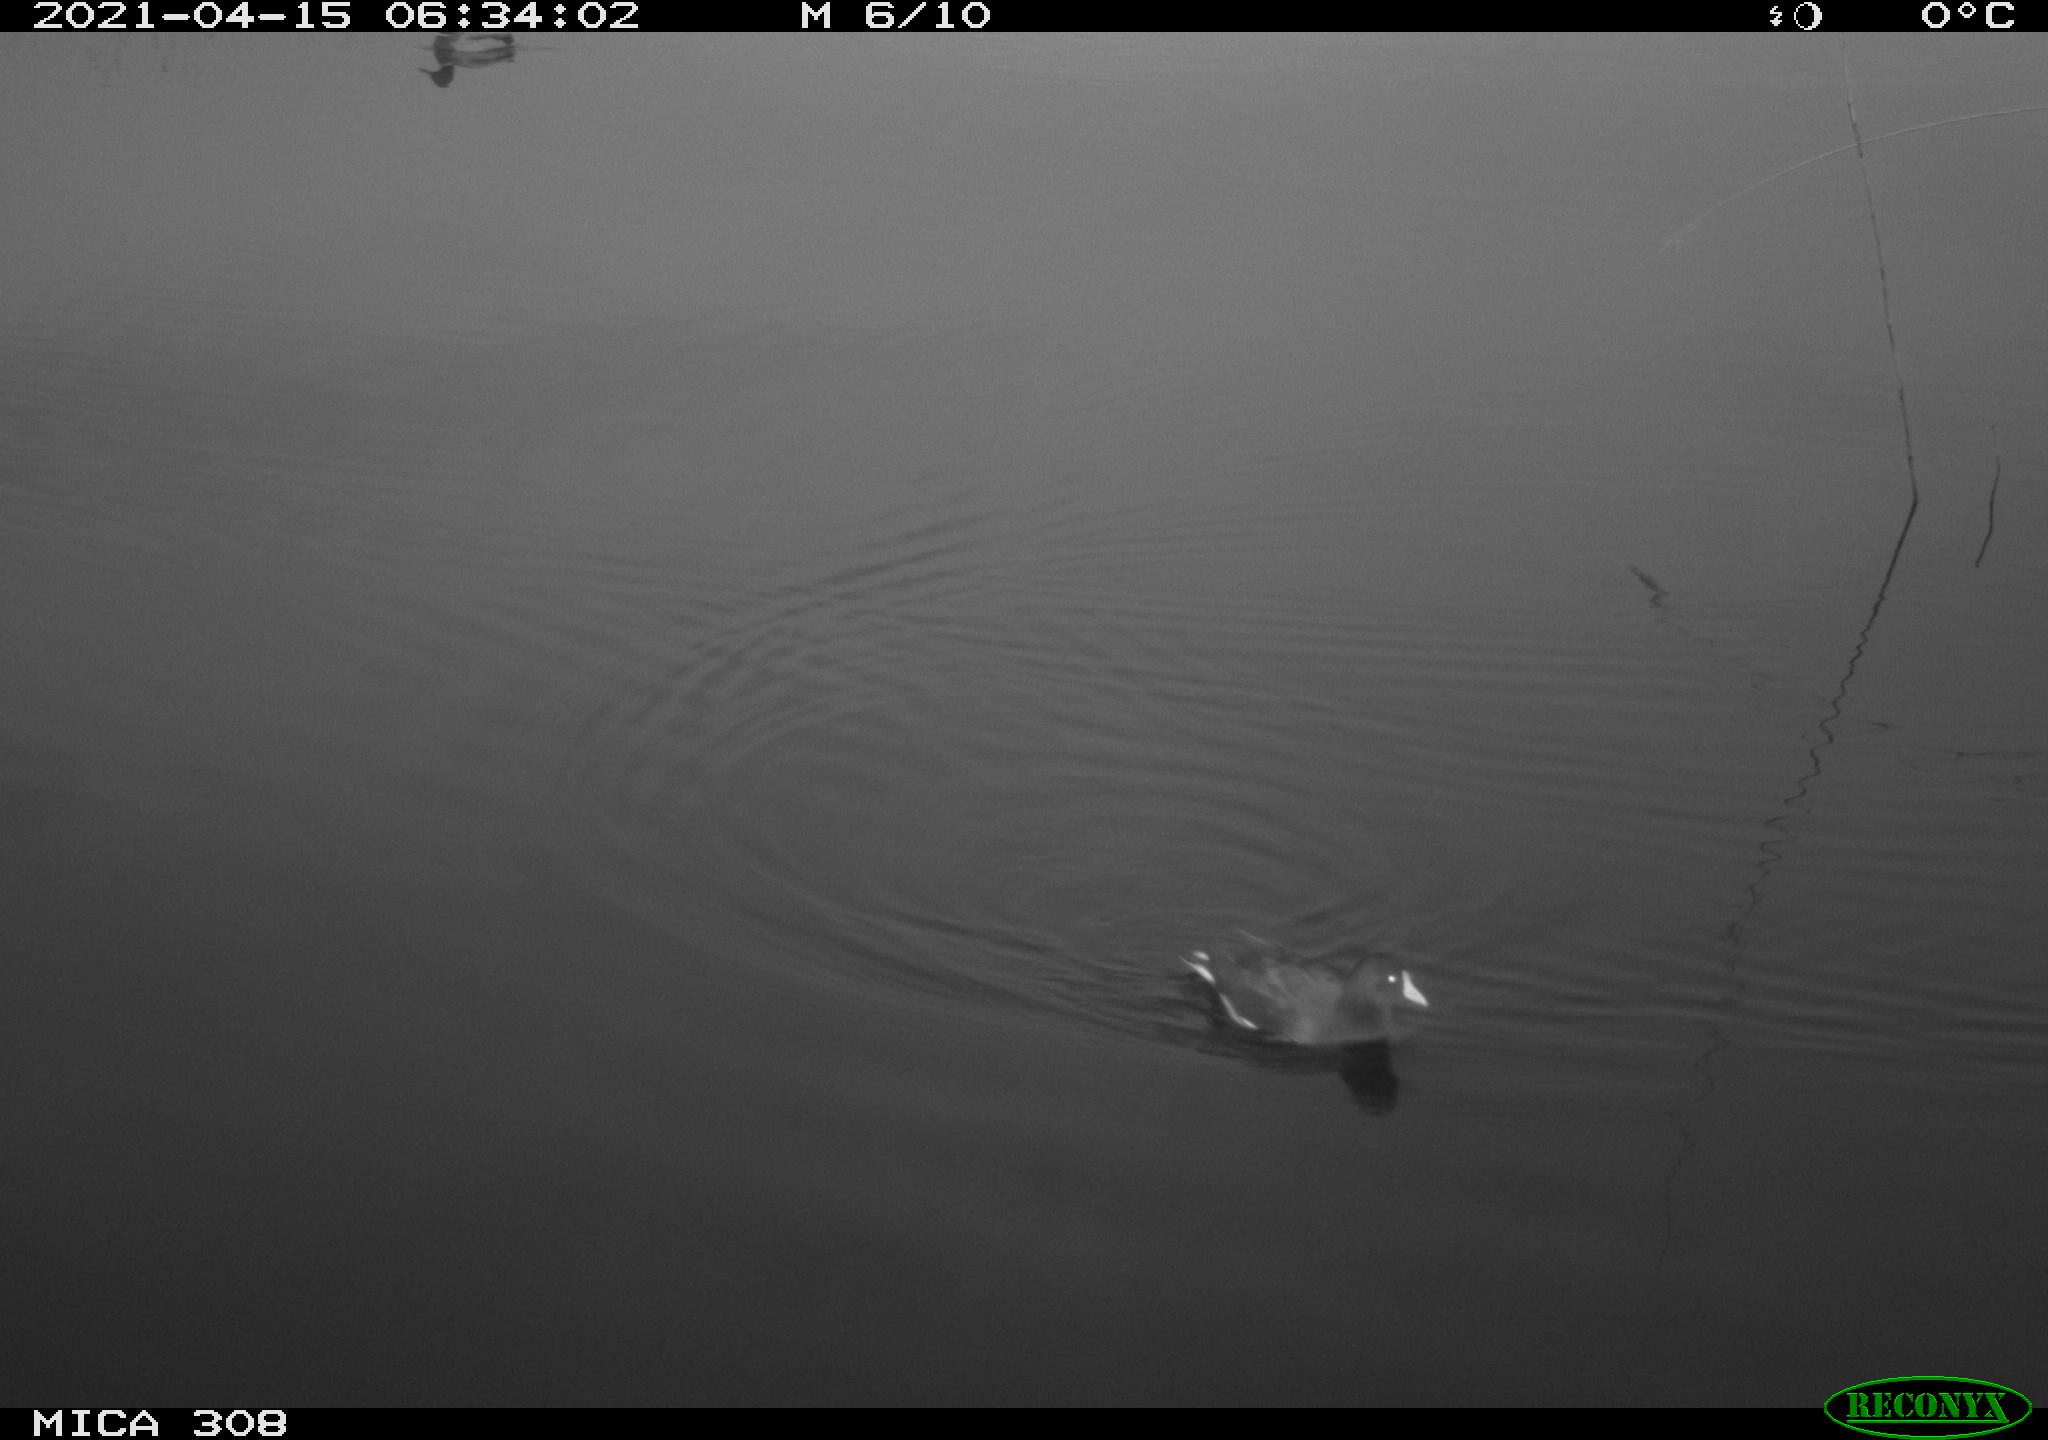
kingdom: Animalia
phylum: Chordata
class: Aves
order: Gruiformes
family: Rallidae
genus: Gallinula
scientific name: Gallinula chloropus
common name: Common moorhen
